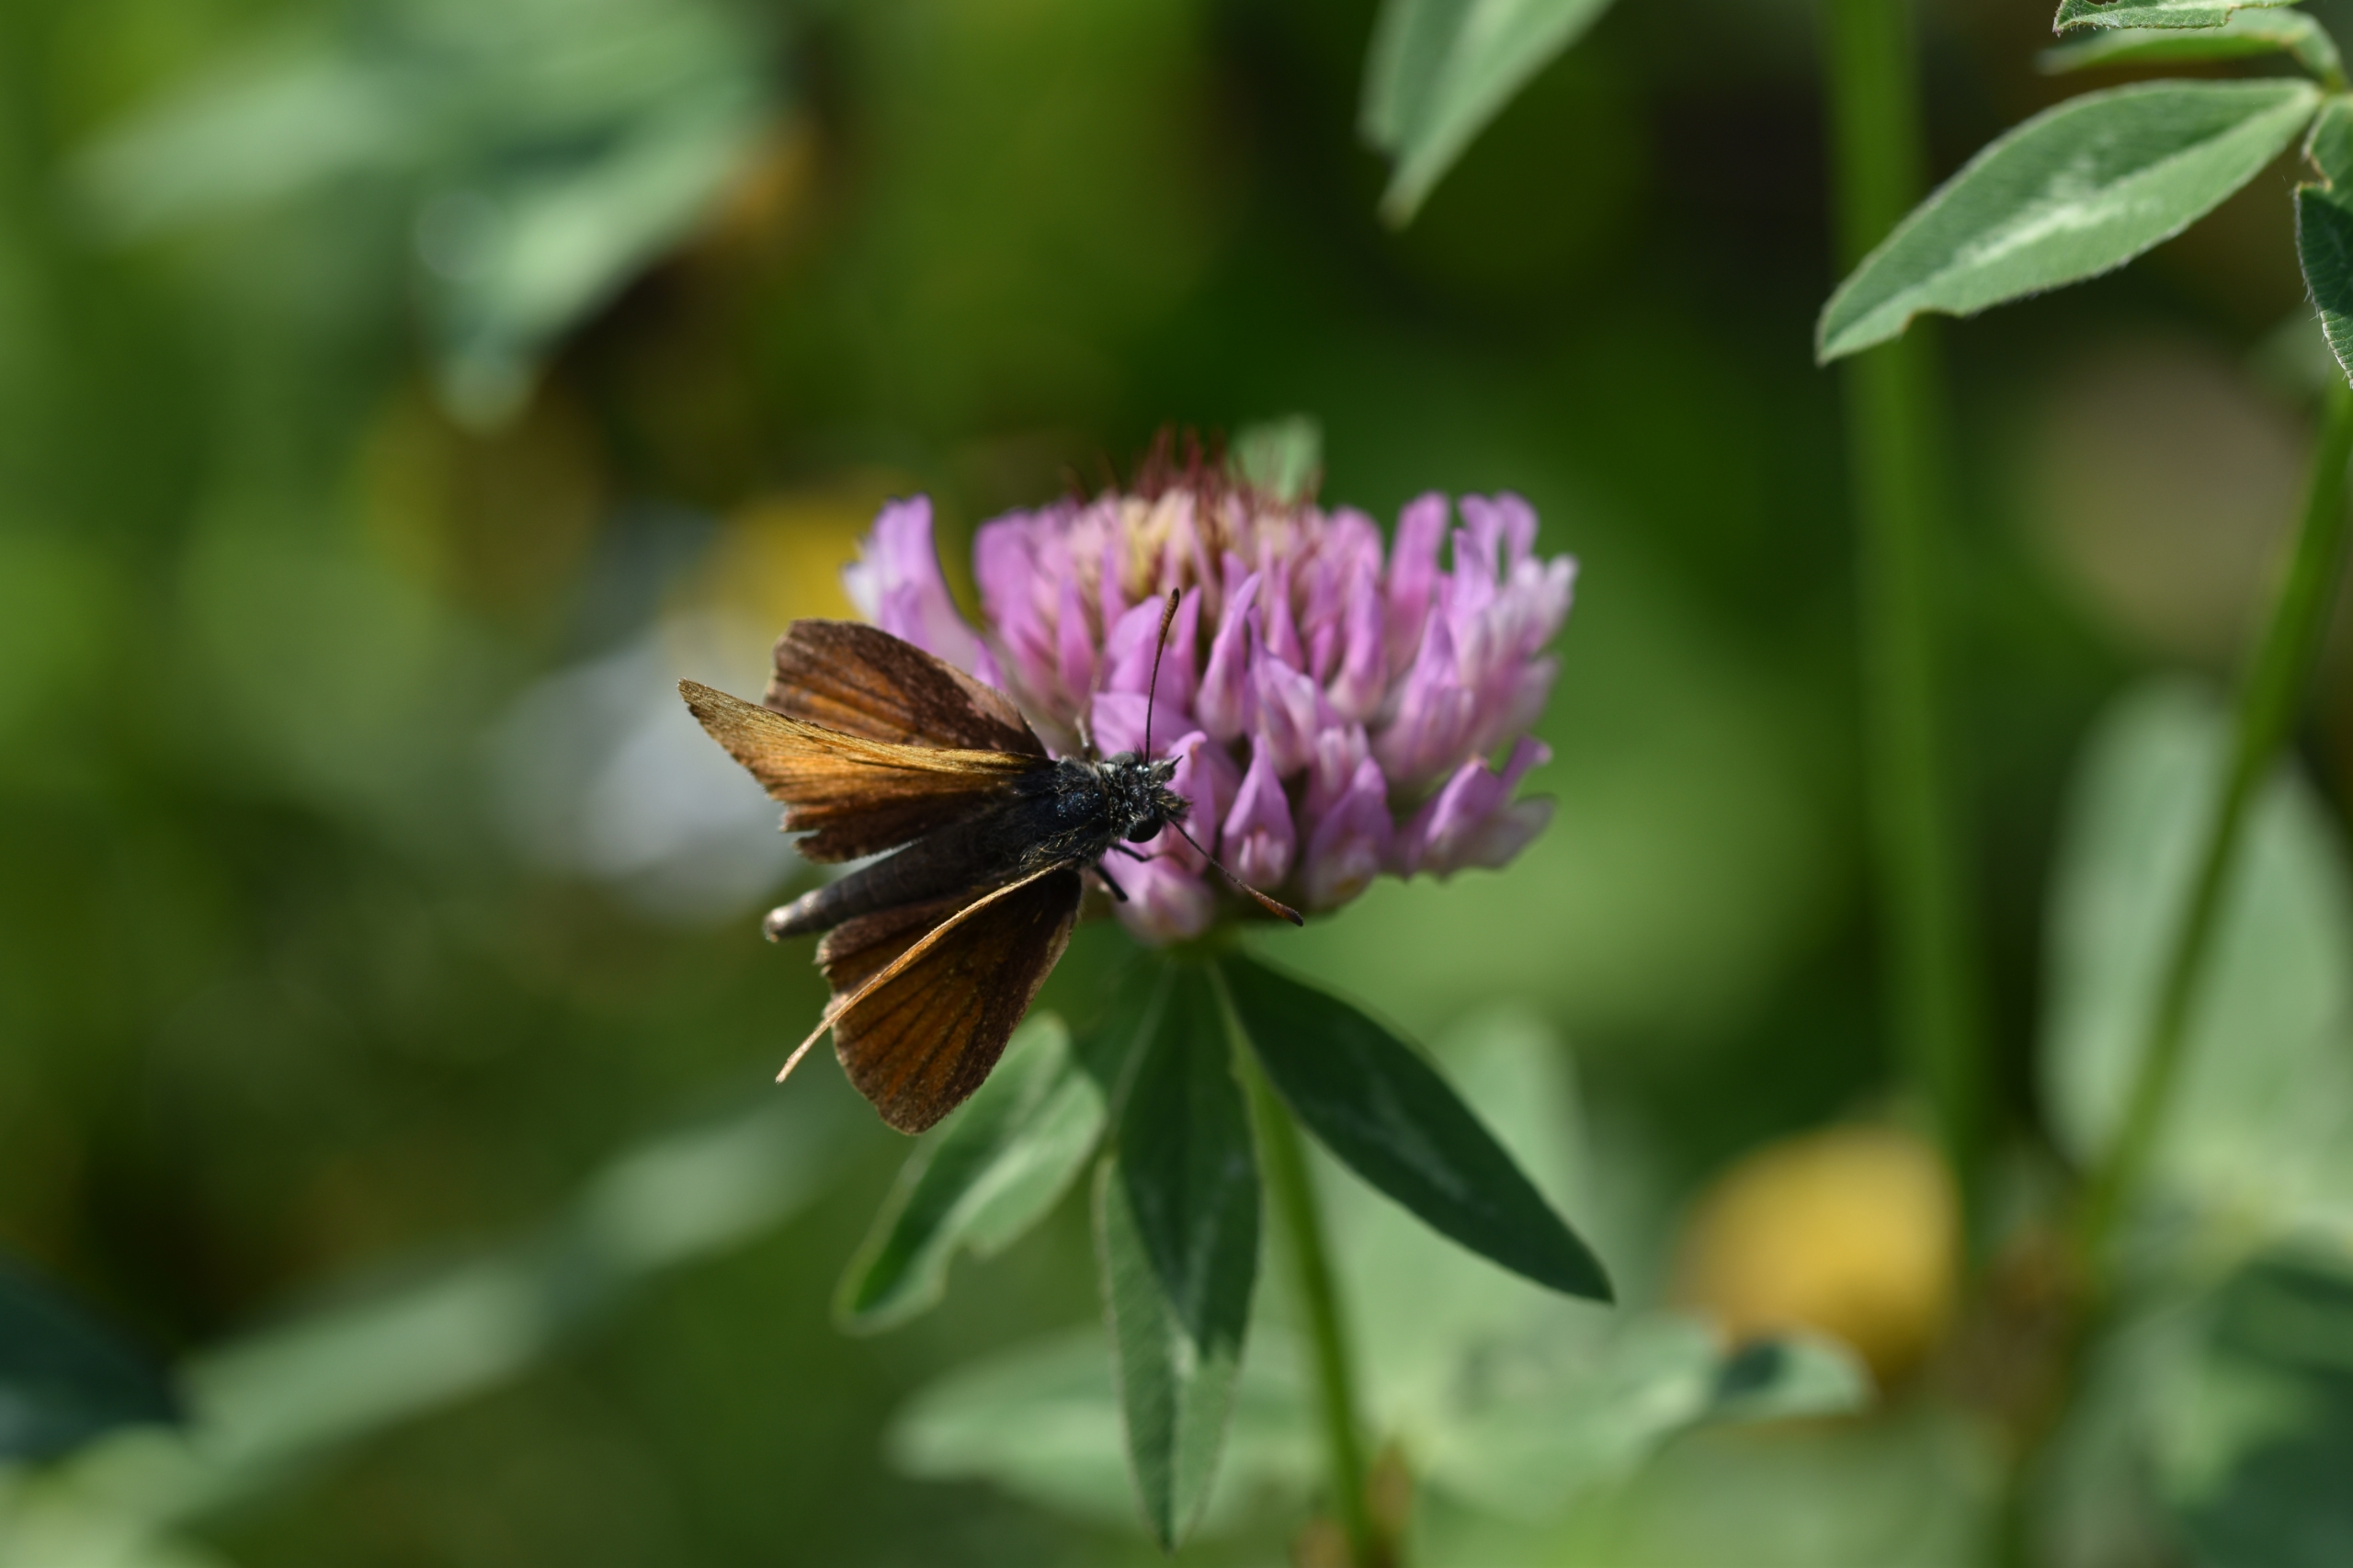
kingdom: Animalia
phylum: Arthropoda
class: Insecta
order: Lepidoptera
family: Hesperiidae
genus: Thymelicus
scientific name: Thymelicus lineola
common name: Stregbredpande
